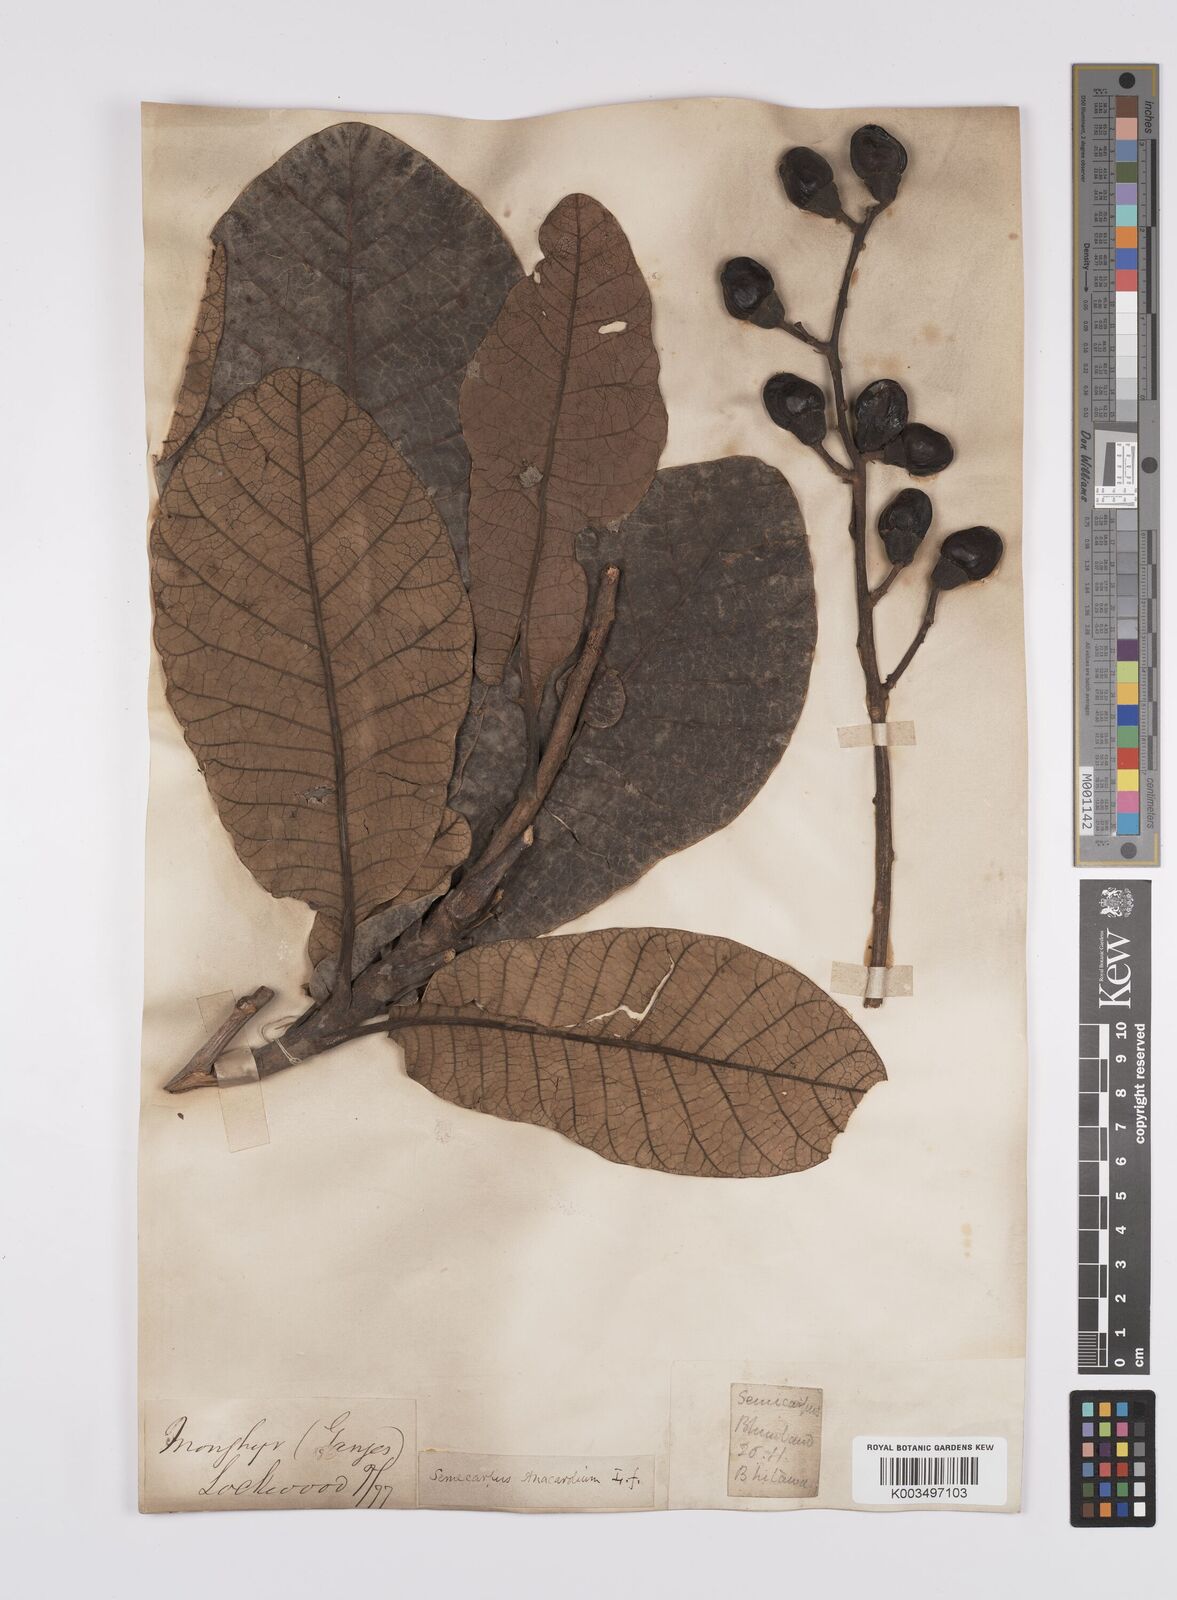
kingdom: Plantae
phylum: Tracheophyta
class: Magnoliopsida
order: Sapindales
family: Anacardiaceae
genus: Semecarpus
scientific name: Semecarpus anacardium
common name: Marking nut-tree
